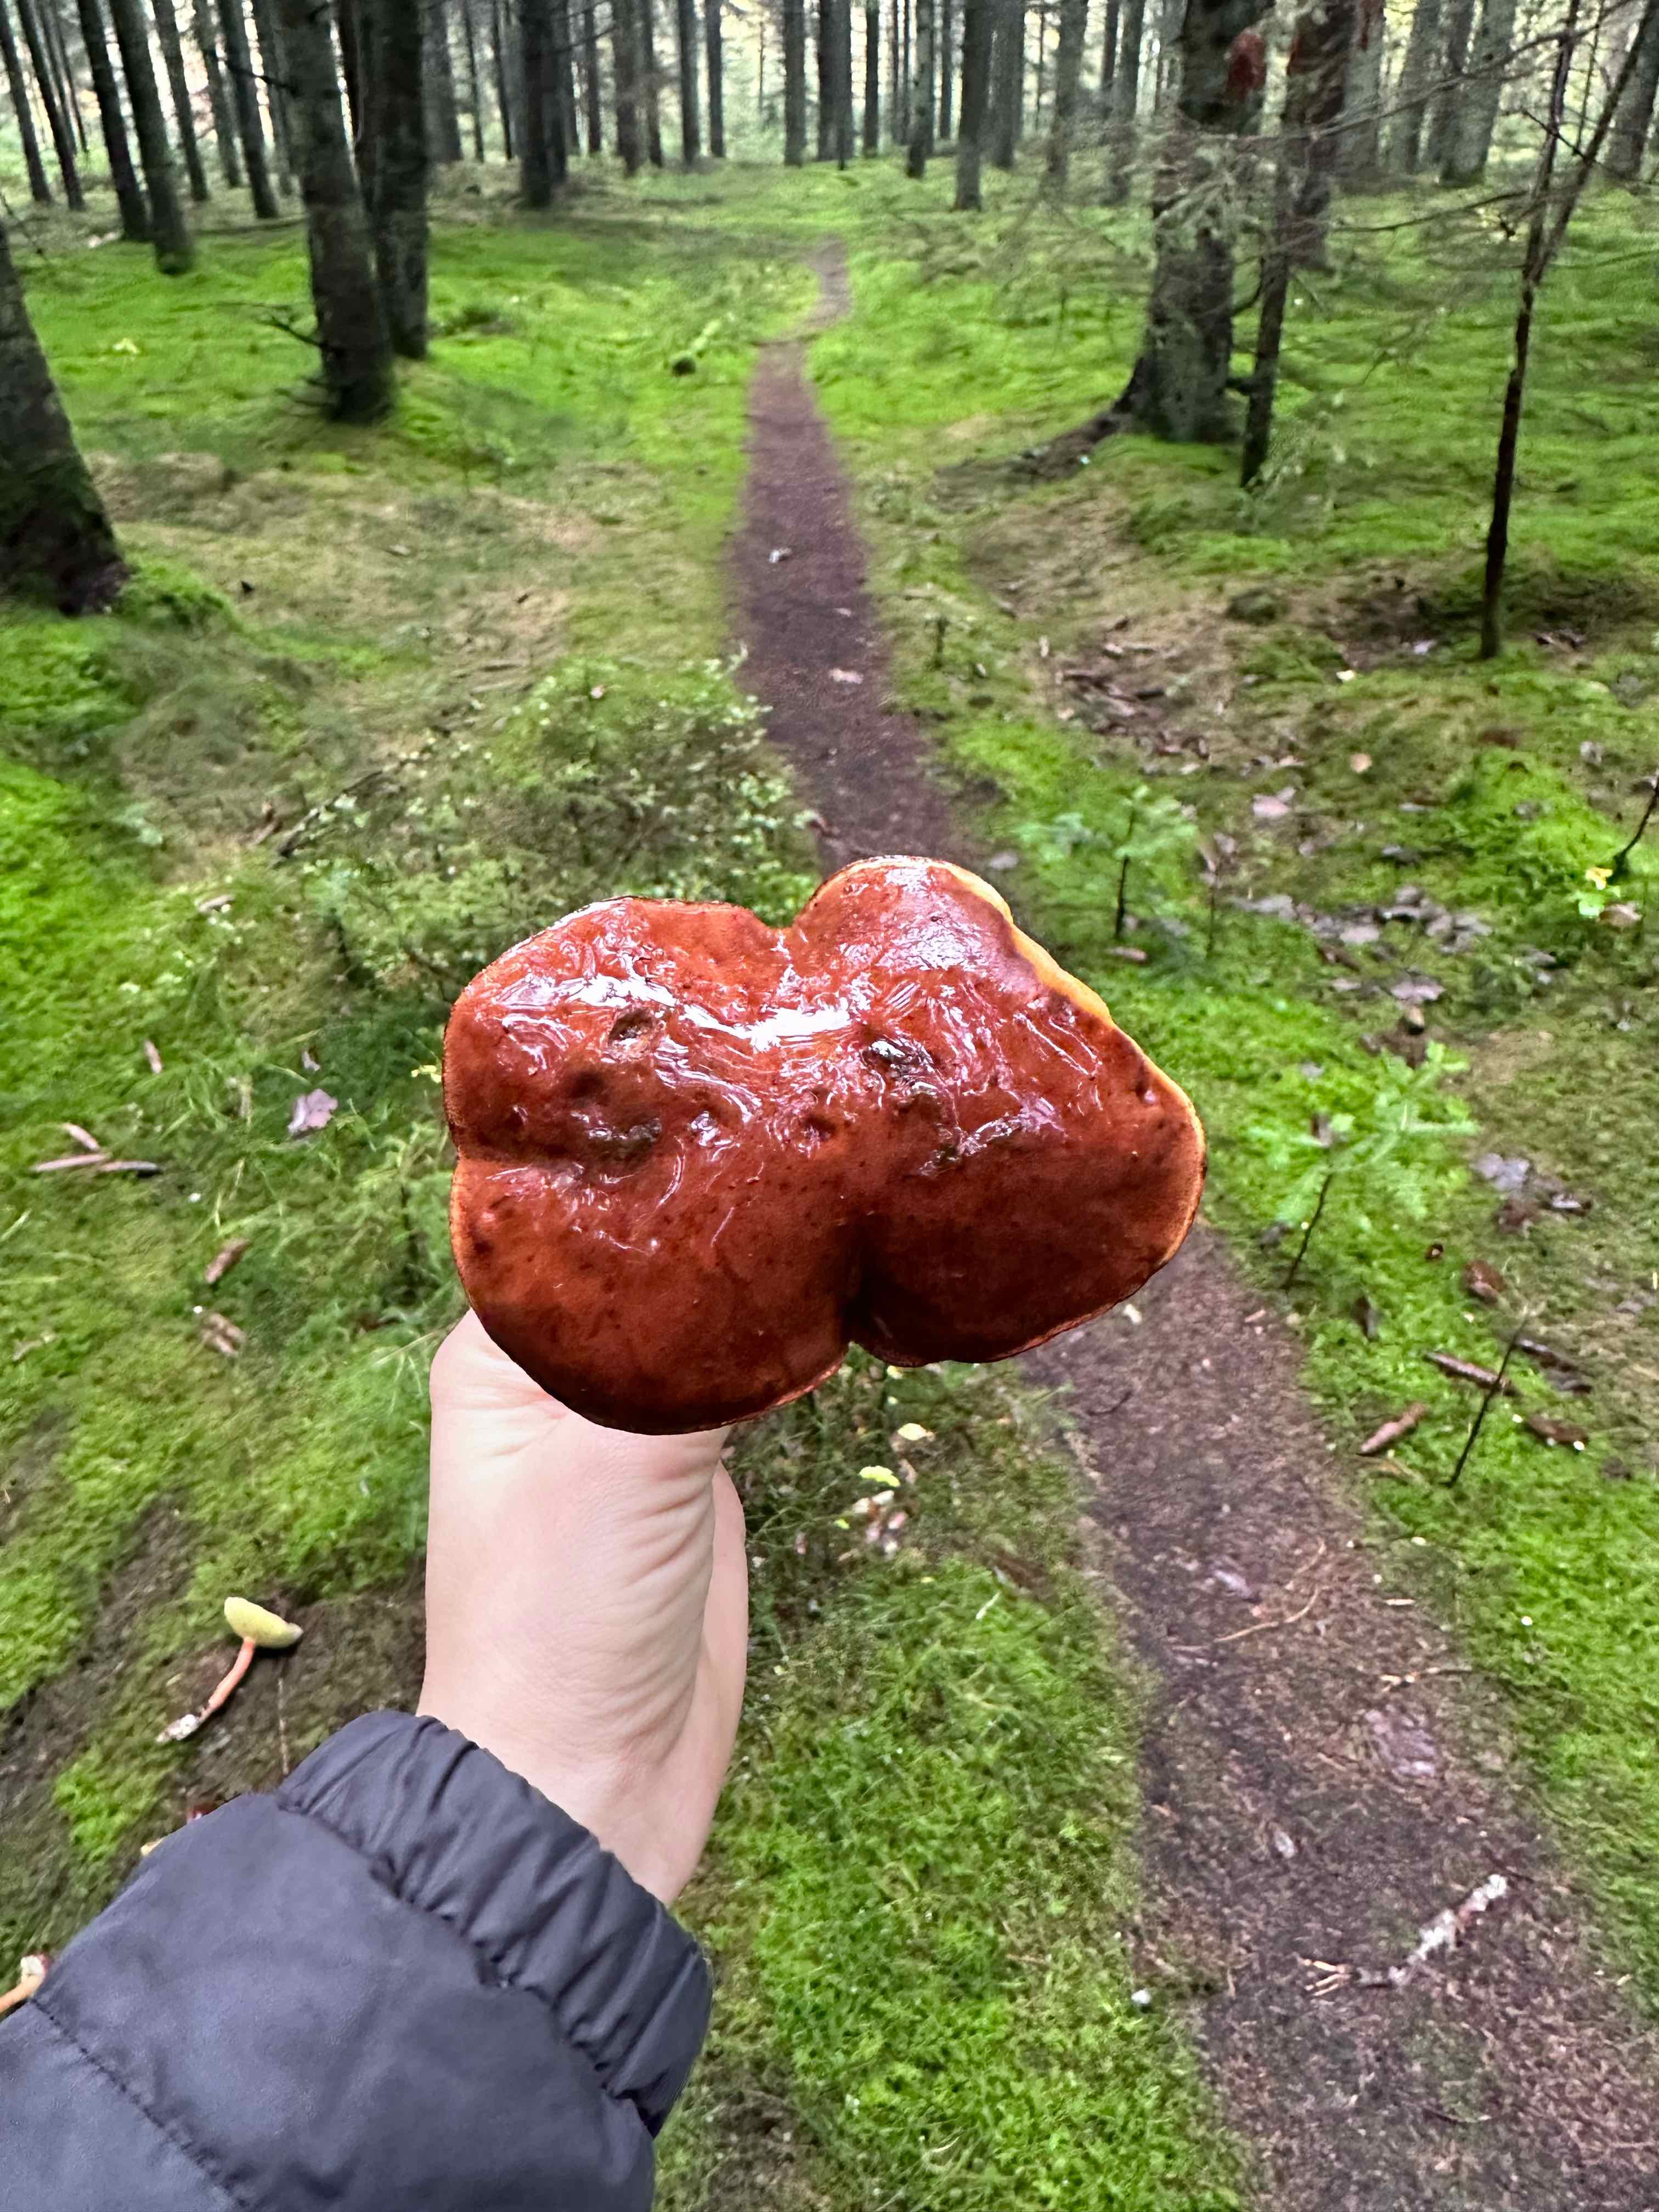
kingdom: Fungi
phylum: Basidiomycota
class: Agaricomycetes
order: Boletales
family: Boletaceae
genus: Imleria
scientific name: Imleria badia
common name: brunstokket rørhat
